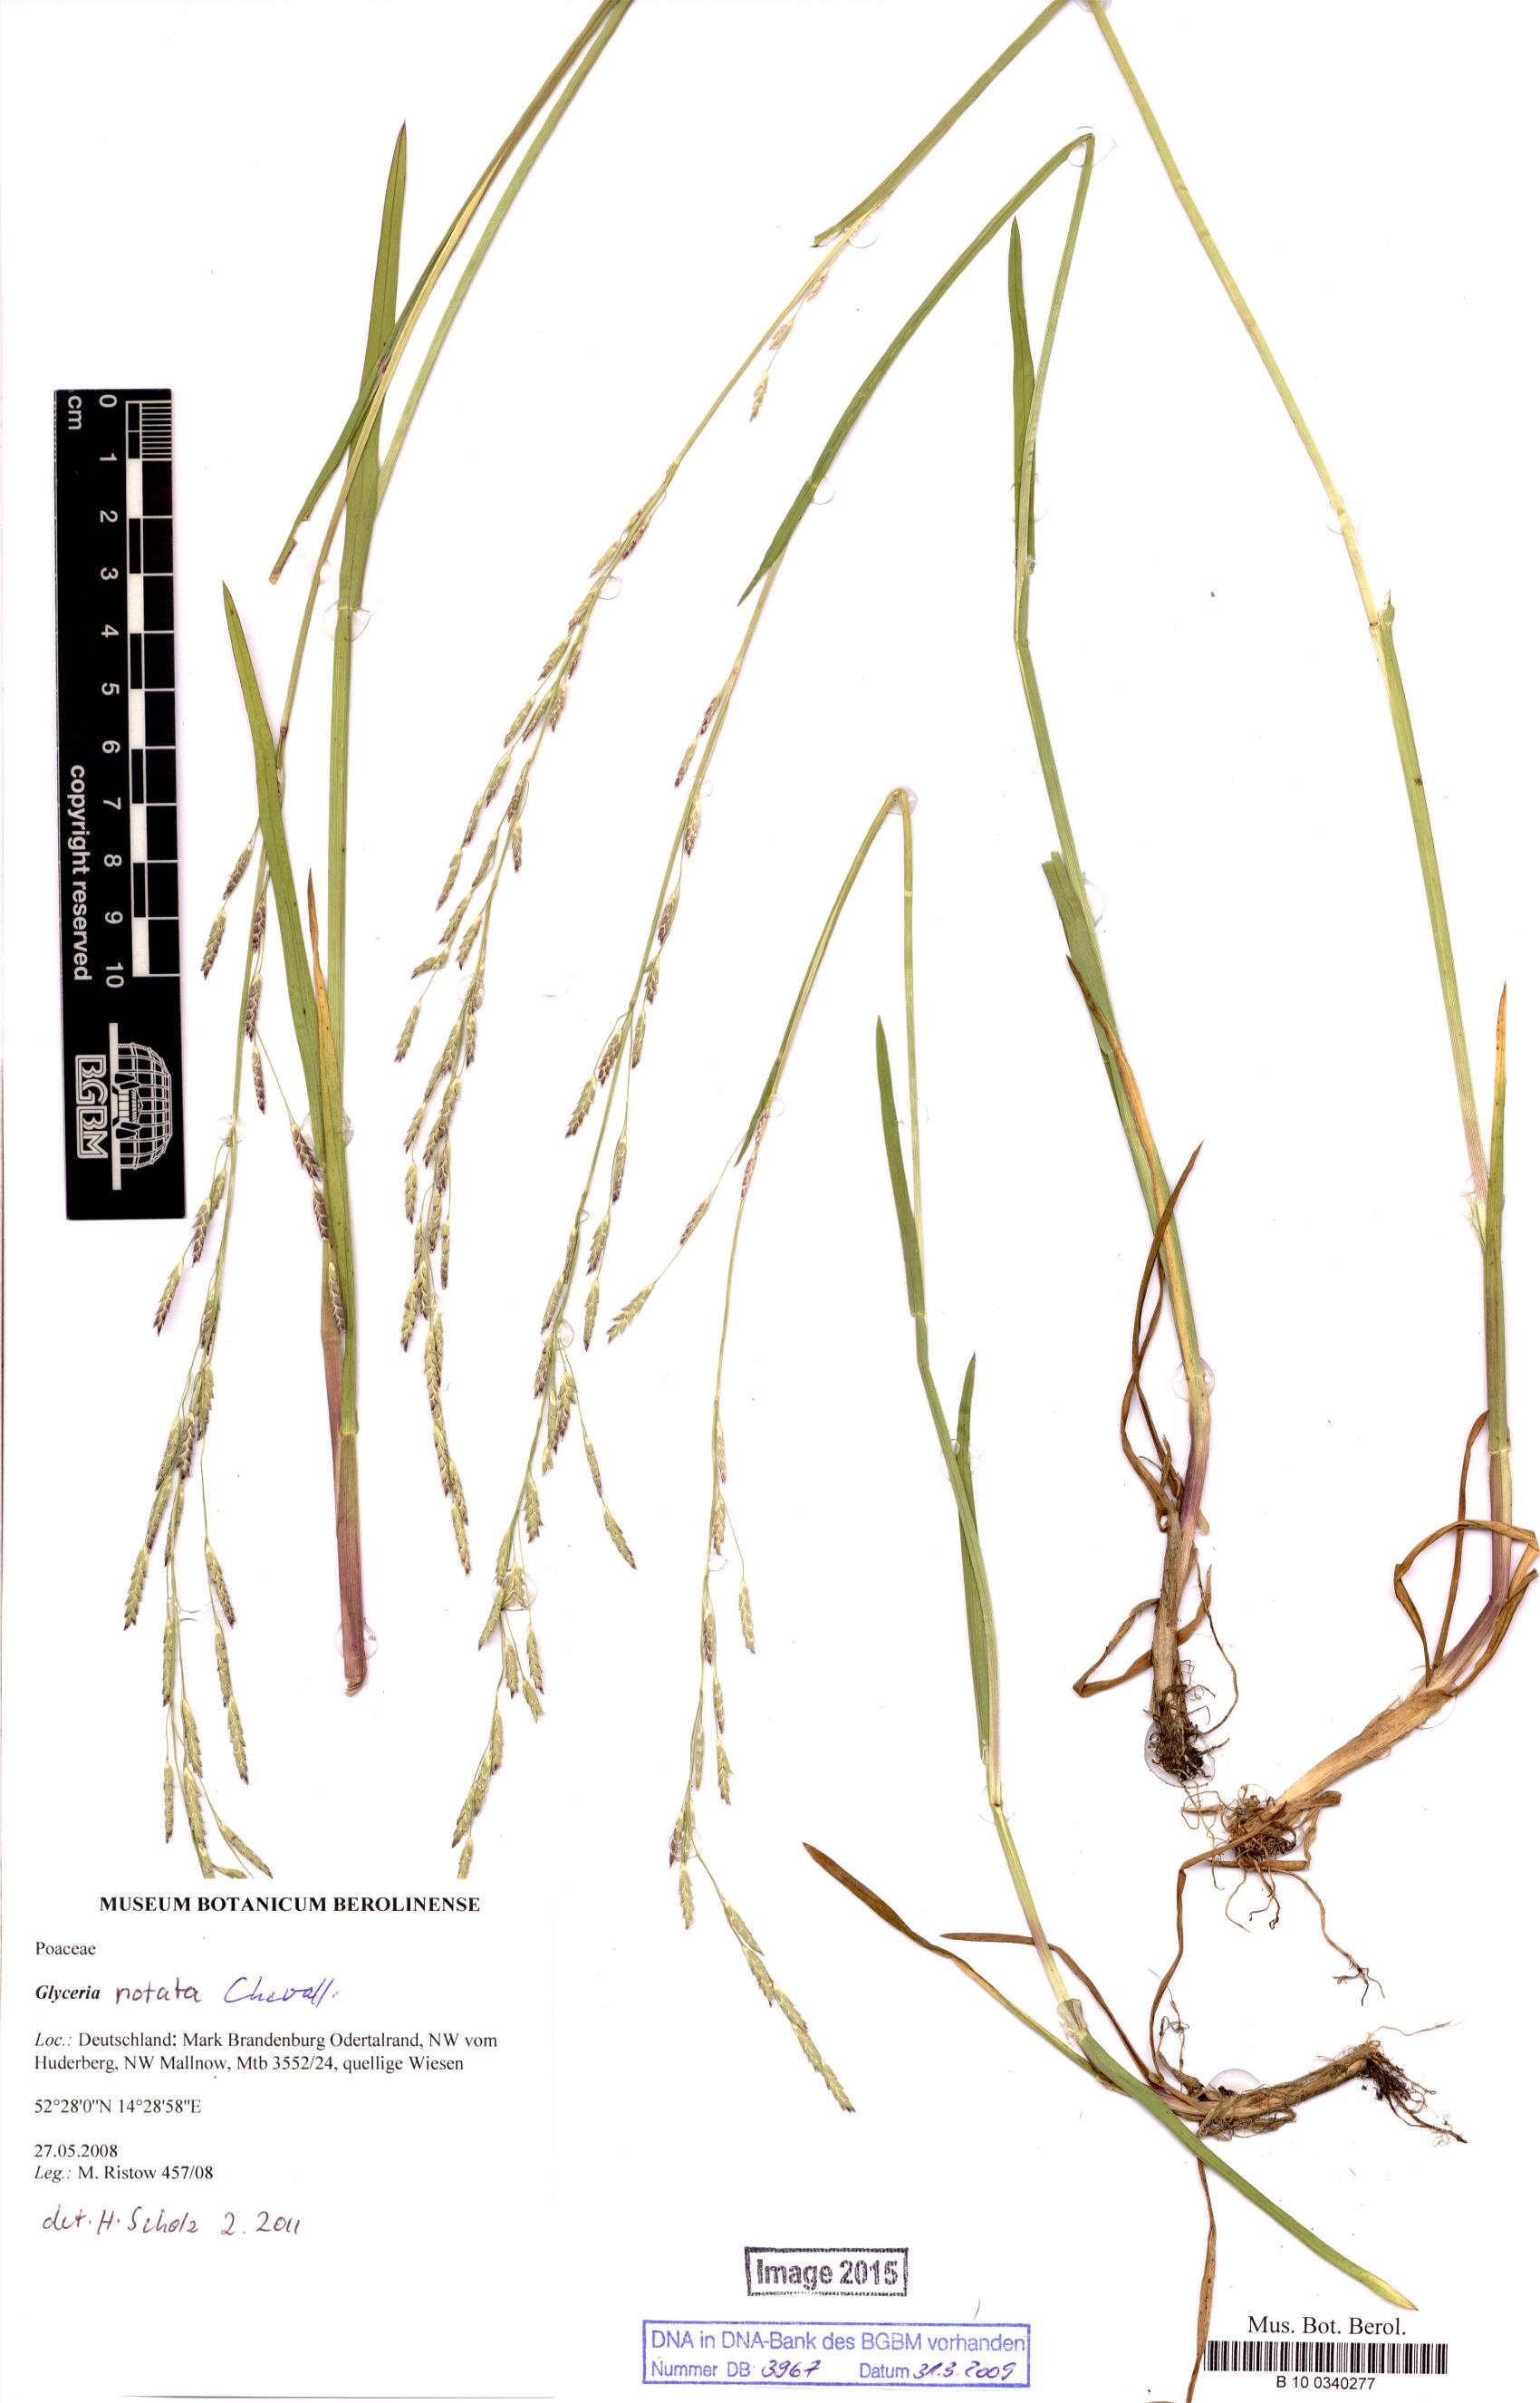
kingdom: Plantae
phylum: Tracheophyta
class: Liliopsida
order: Poales
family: Poaceae
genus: Glyceria
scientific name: Glyceria notata
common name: Plicate sweet-grass
